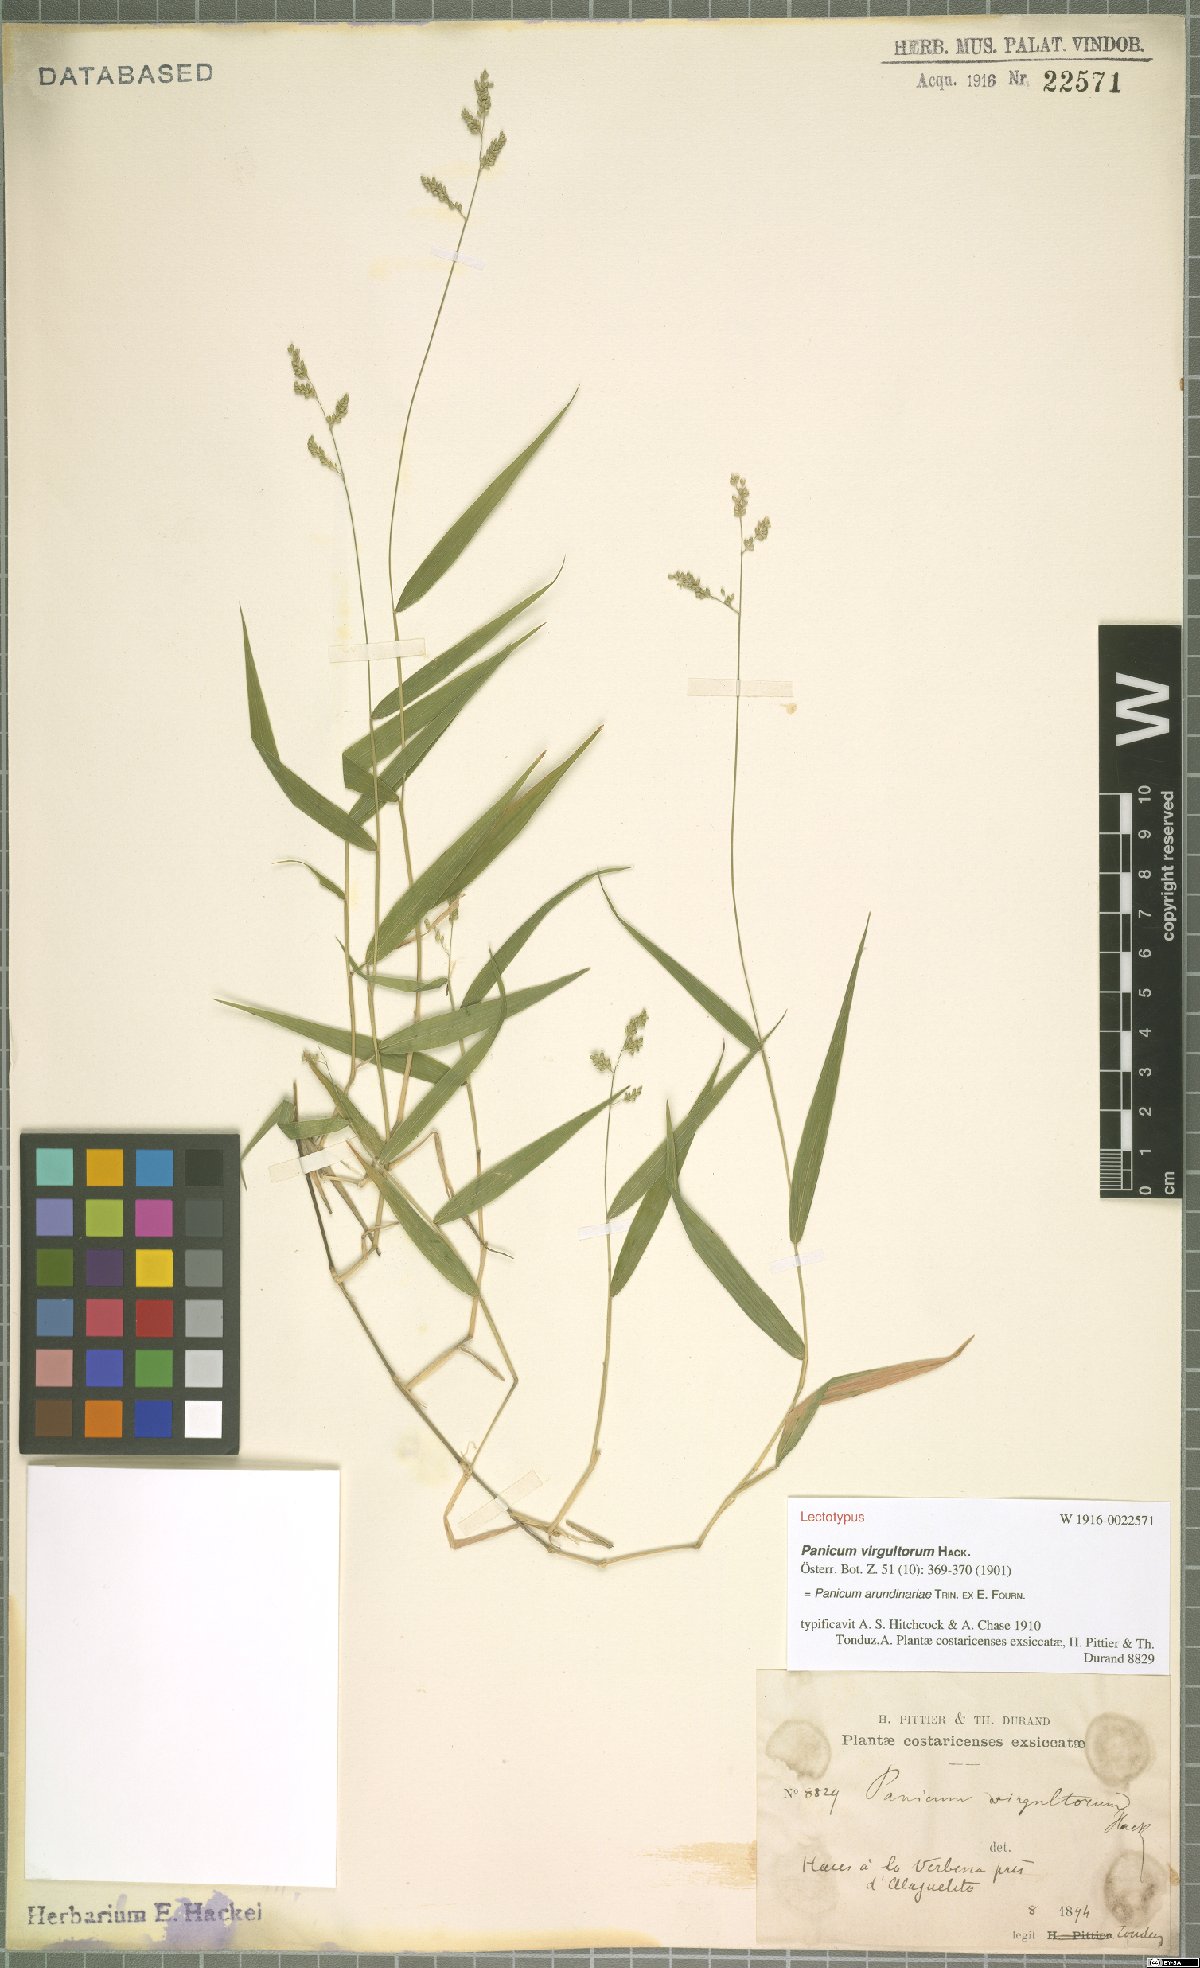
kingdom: Plantae
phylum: Tracheophyta
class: Liliopsida
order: Poales
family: Poaceae
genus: Morronea
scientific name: Morronea arundinariae
